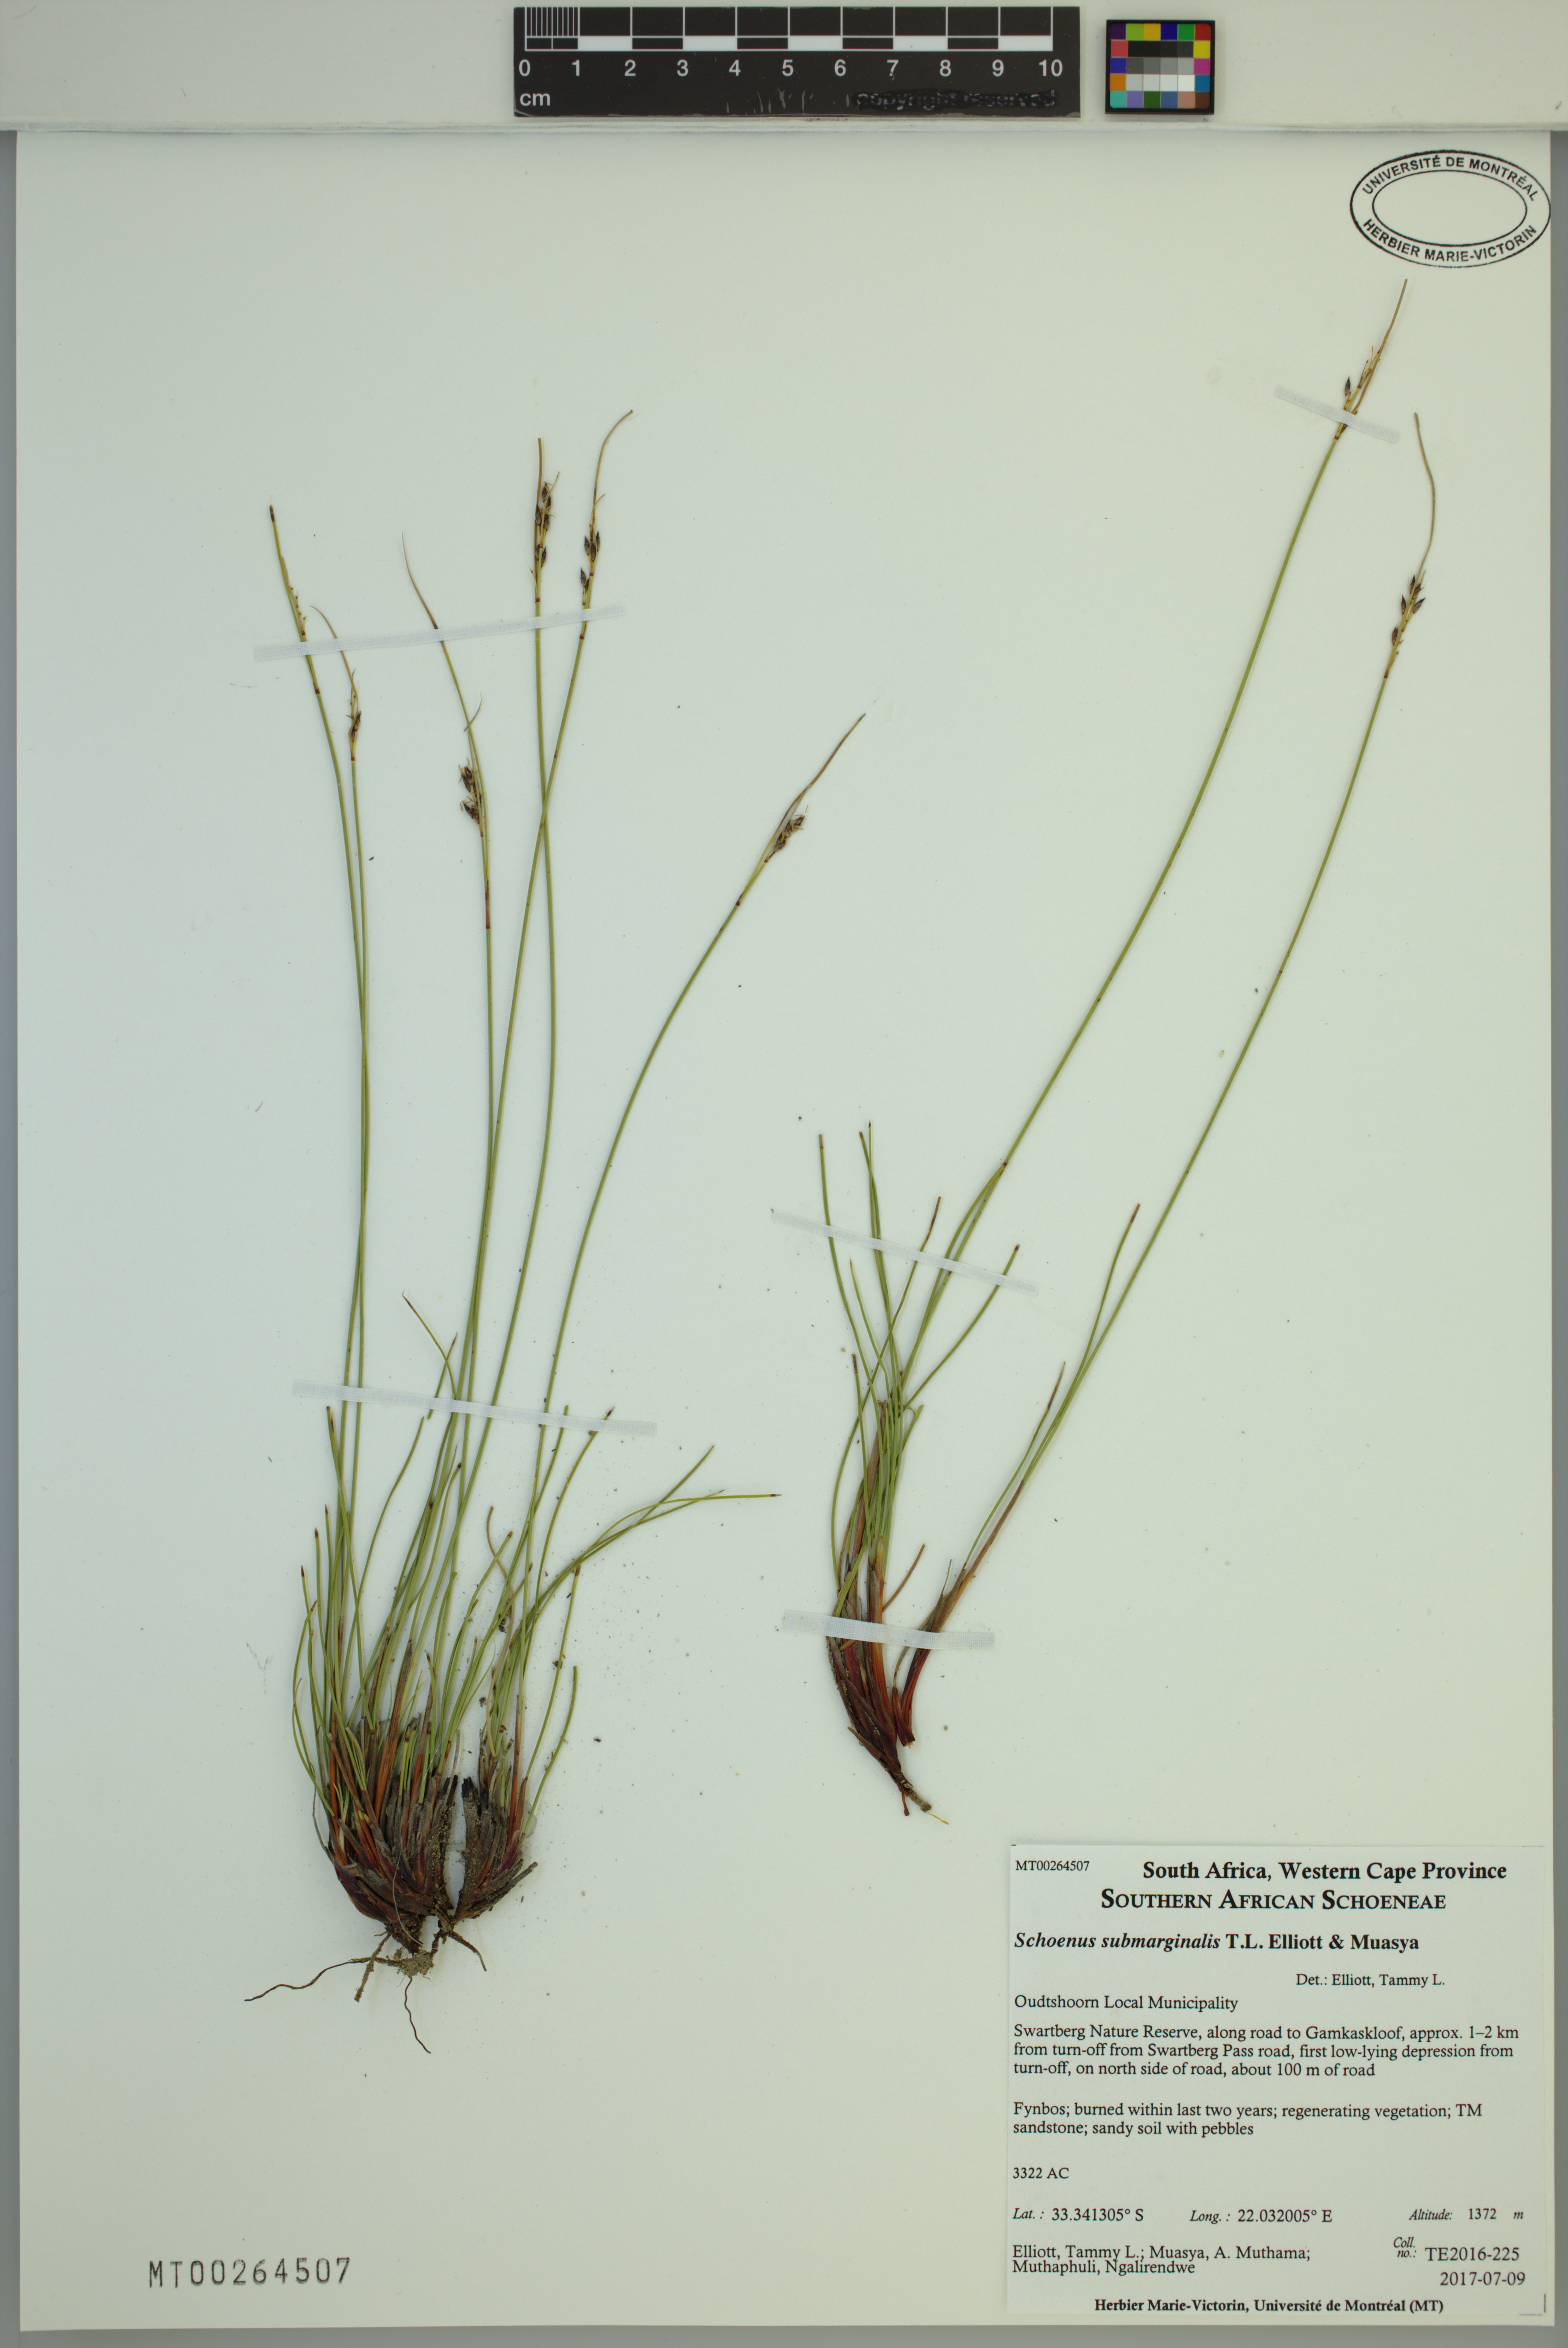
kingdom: Plantae
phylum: Tracheophyta
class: Liliopsida
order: Poales
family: Cyperaceae
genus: Schoenus
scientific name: Schoenus submarginalis
